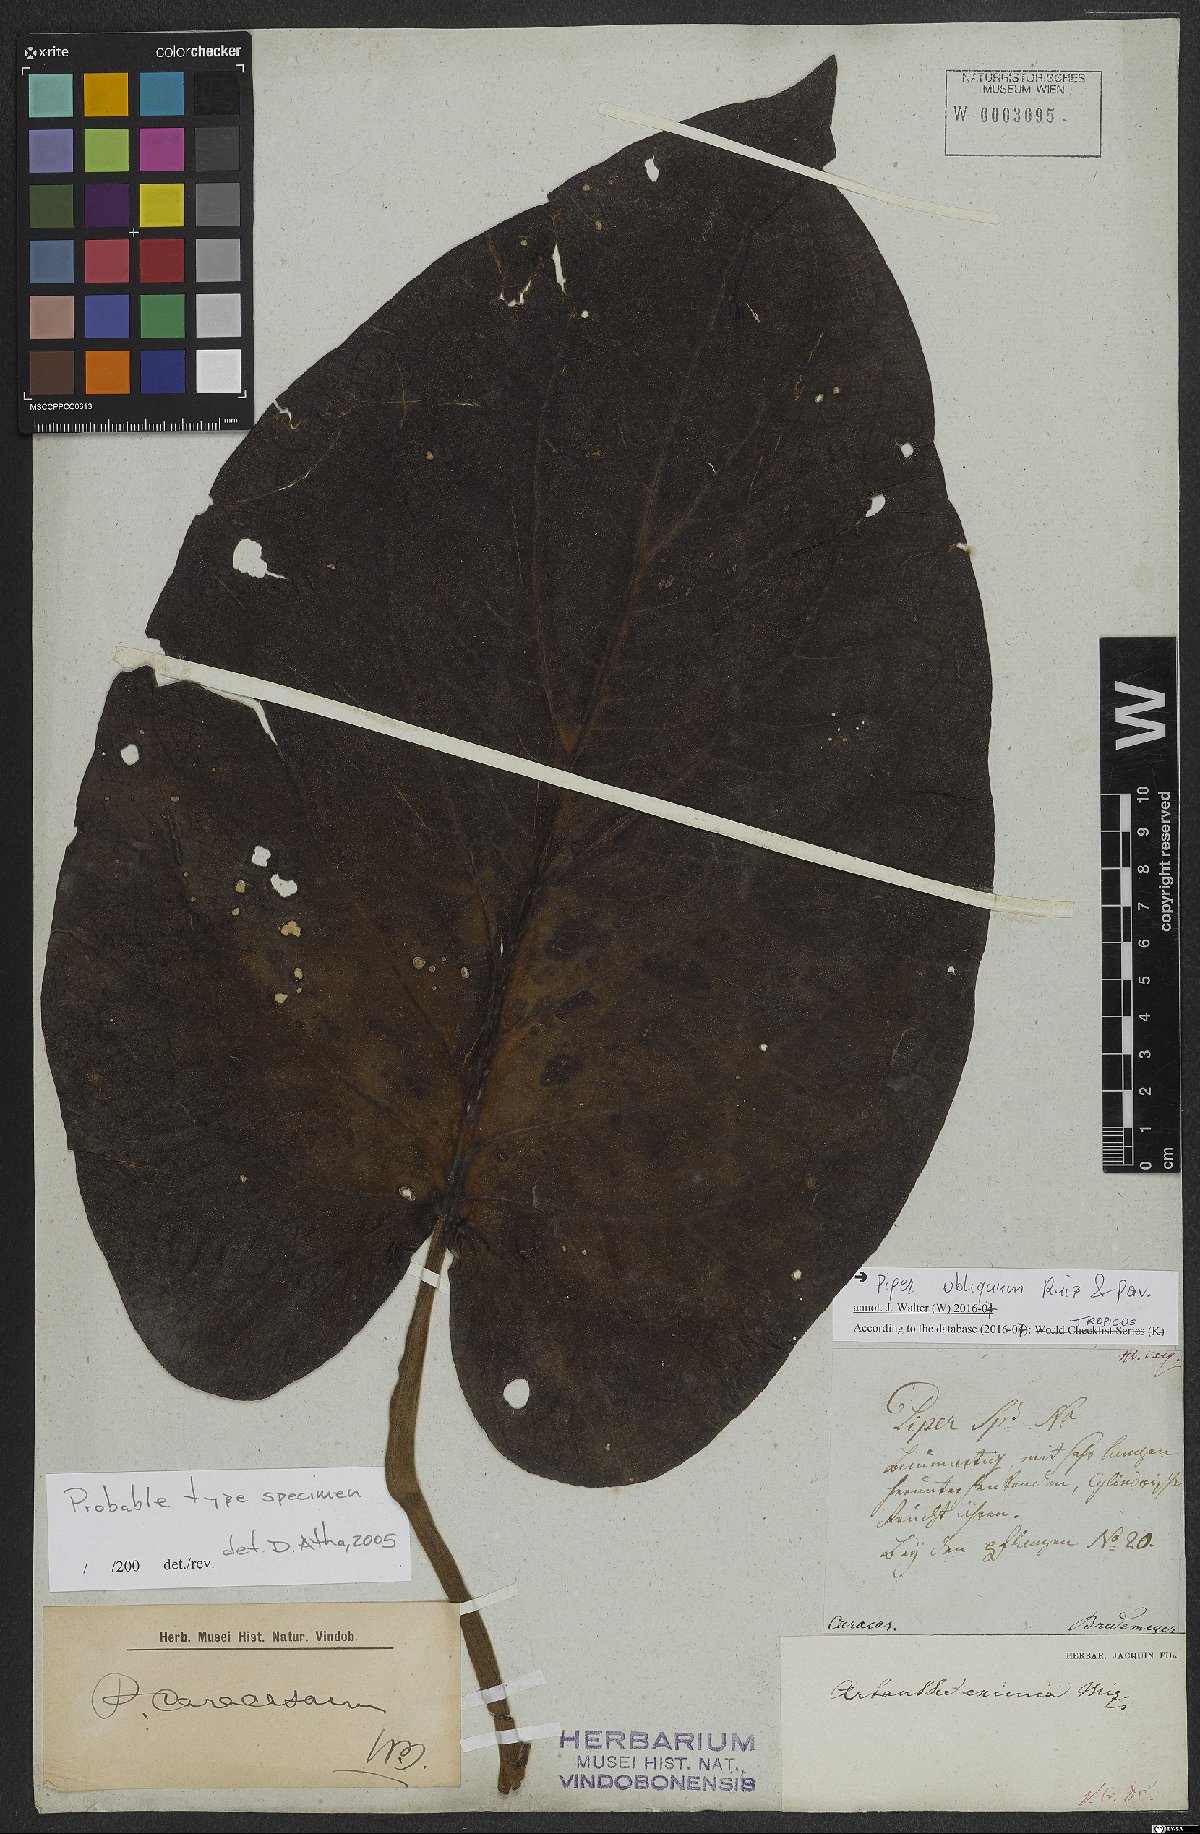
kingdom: Plantae
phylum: Tracheophyta
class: Magnoliopsida
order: Piperales
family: Piperaceae
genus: Piper
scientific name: Piper obliquum
